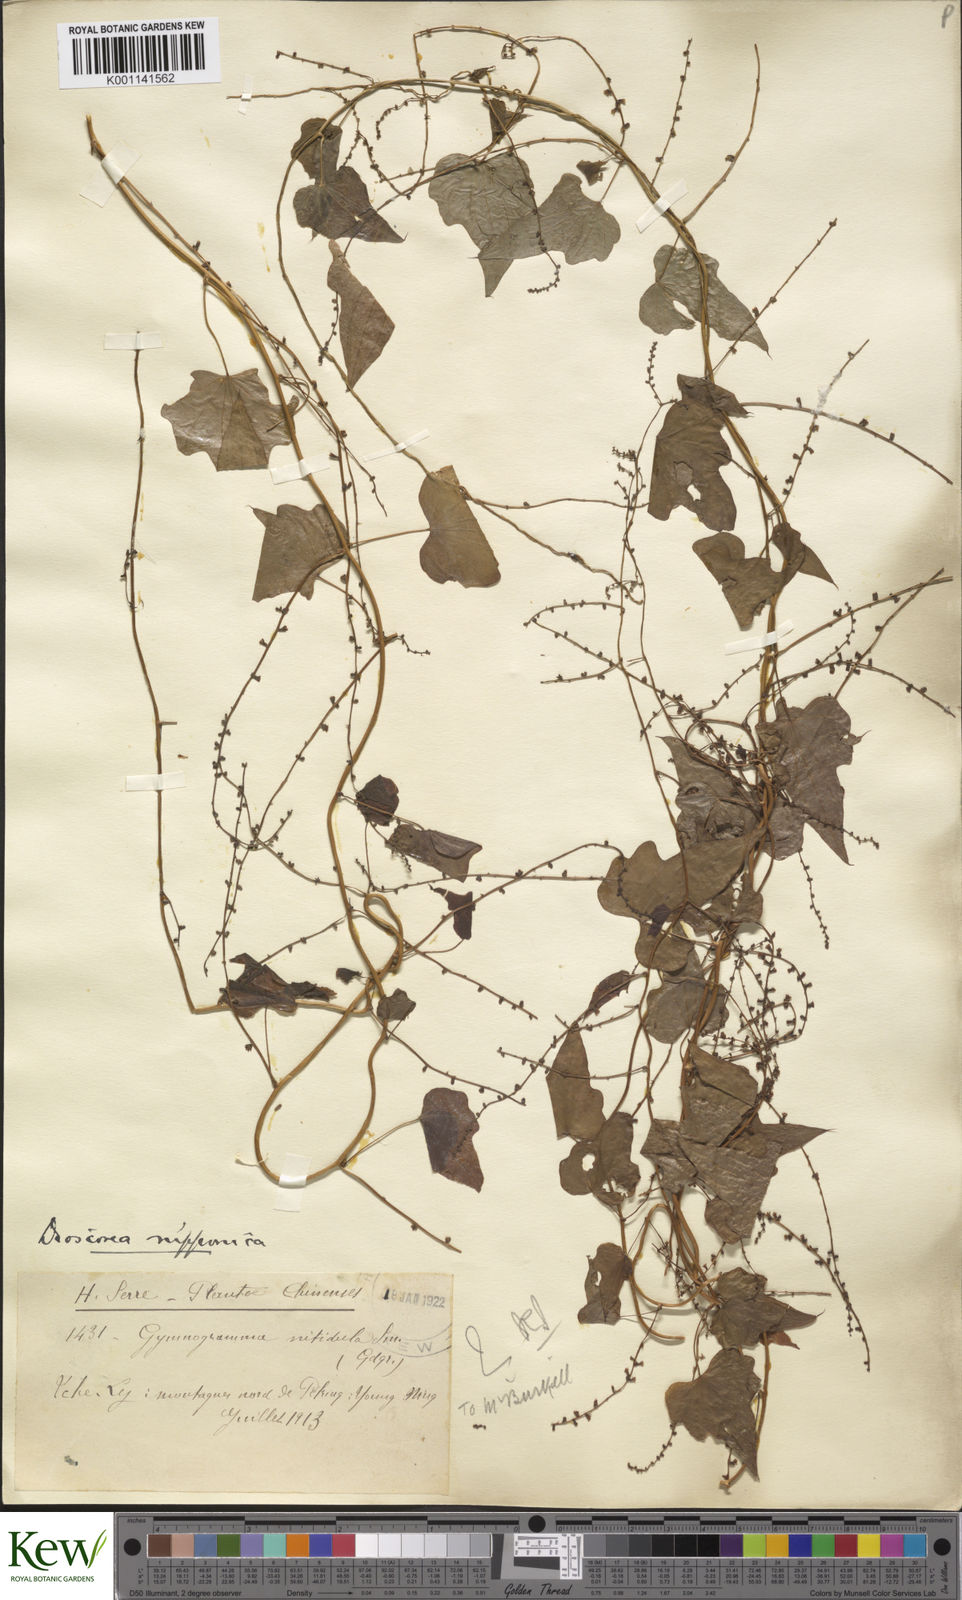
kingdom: Plantae
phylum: Tracheophyta
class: Liliopsida
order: Dioscoreales
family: Dioscoreaceae
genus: Dioscorea
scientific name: Dioscorea nipponica
